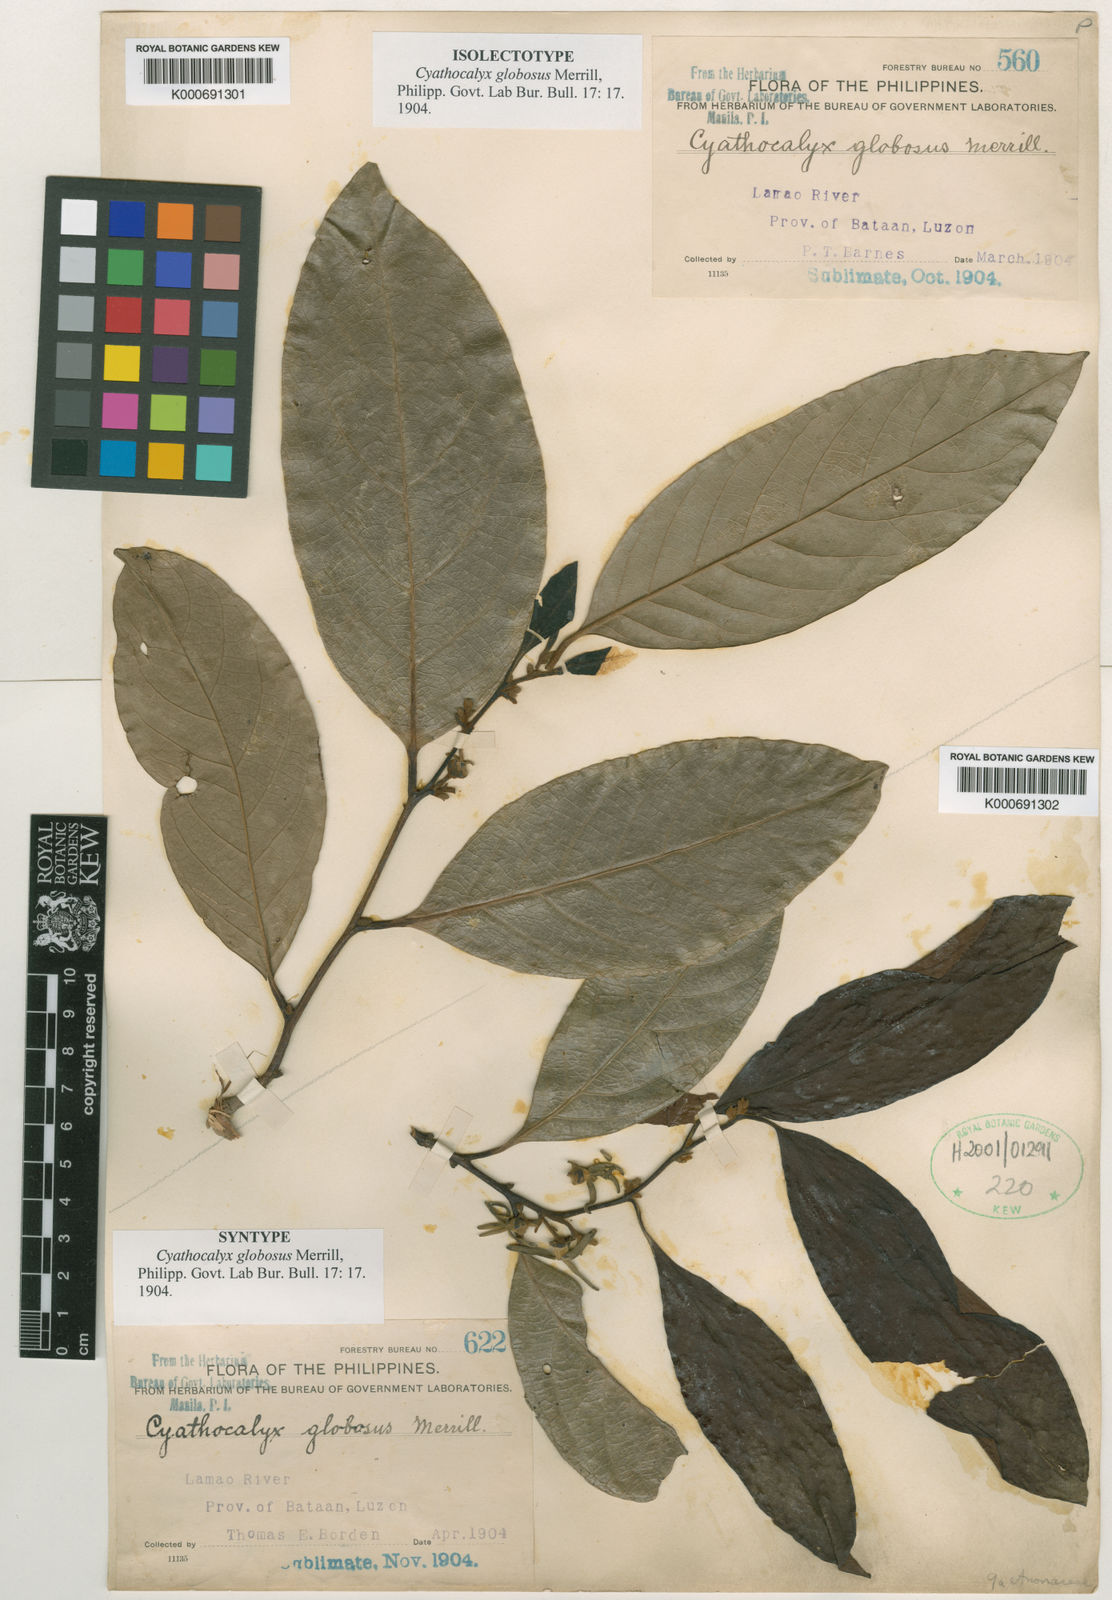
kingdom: Plantae
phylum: Tracheophyta
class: Magnoliopsida
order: Magnoliales
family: Annonaceae
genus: Cyathocalyx
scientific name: Cyathocalyx globosus
